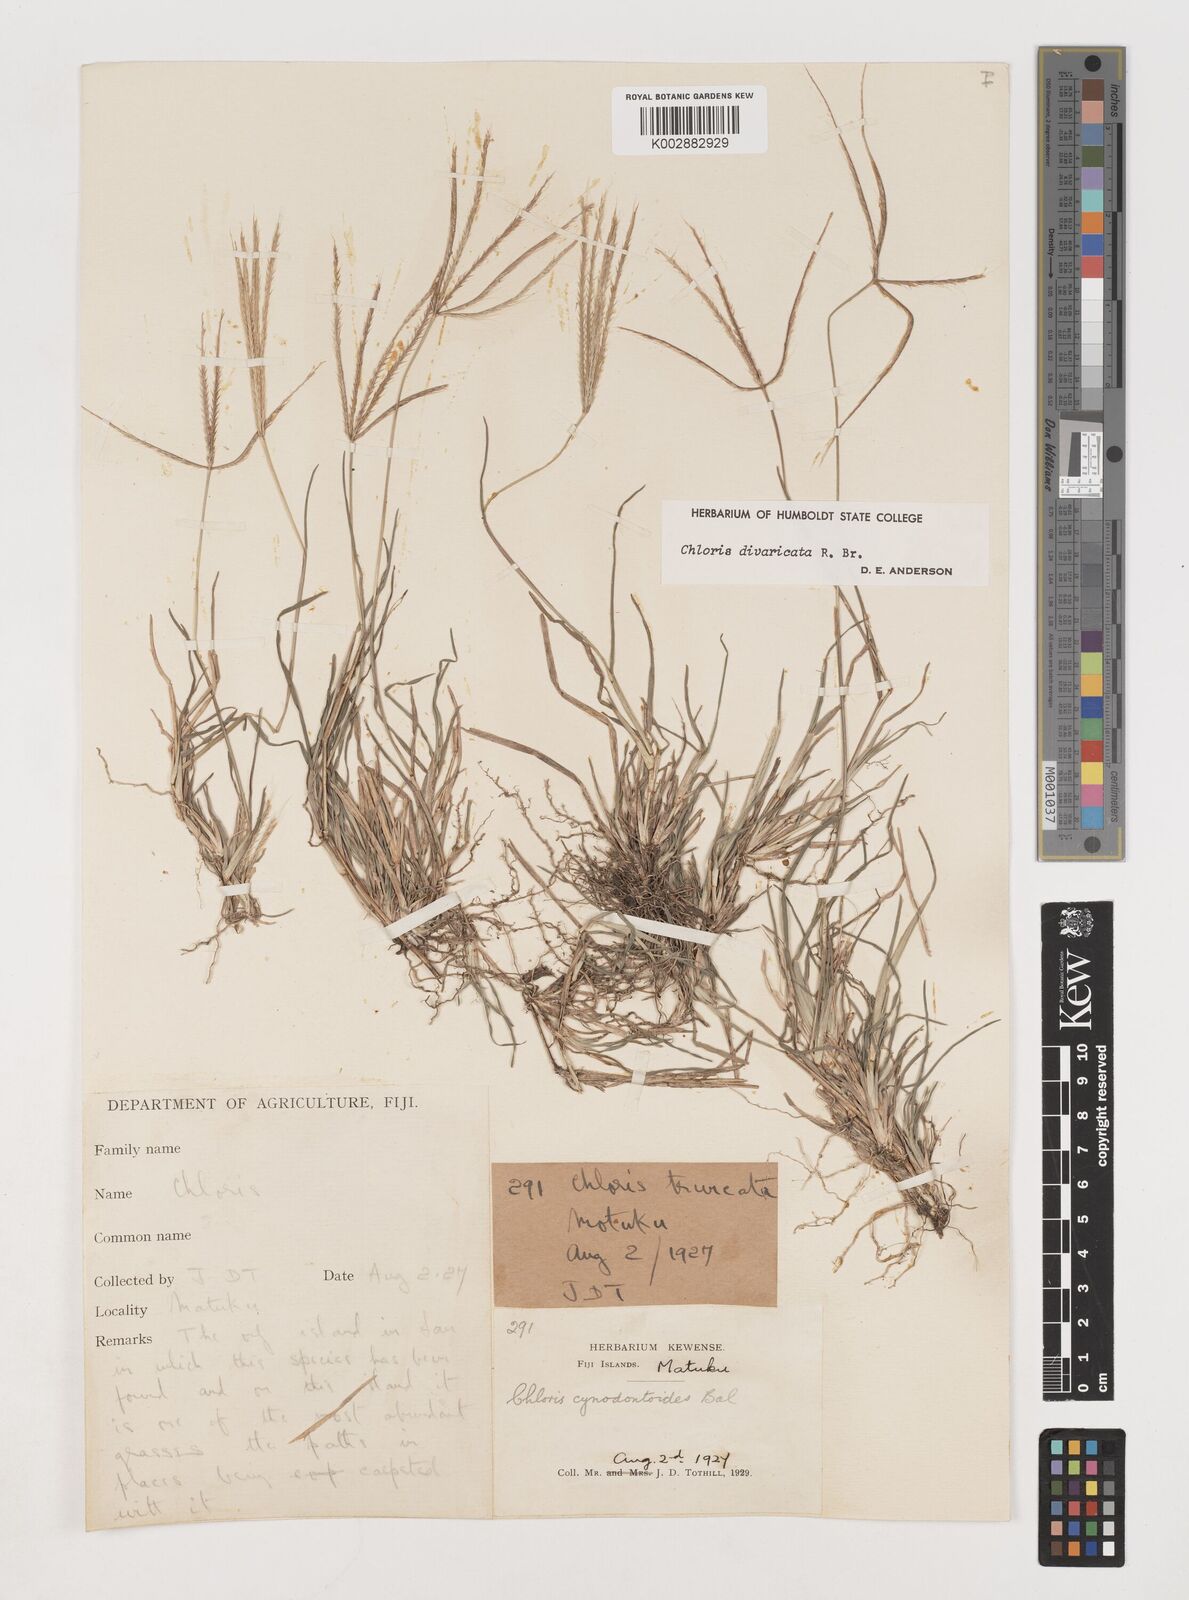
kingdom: Plantae
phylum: Tracheophyta
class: Liliopsida
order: Poales
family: Poaceae
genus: Chloris
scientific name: Chloris divaricata
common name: Spreading windmill grass
